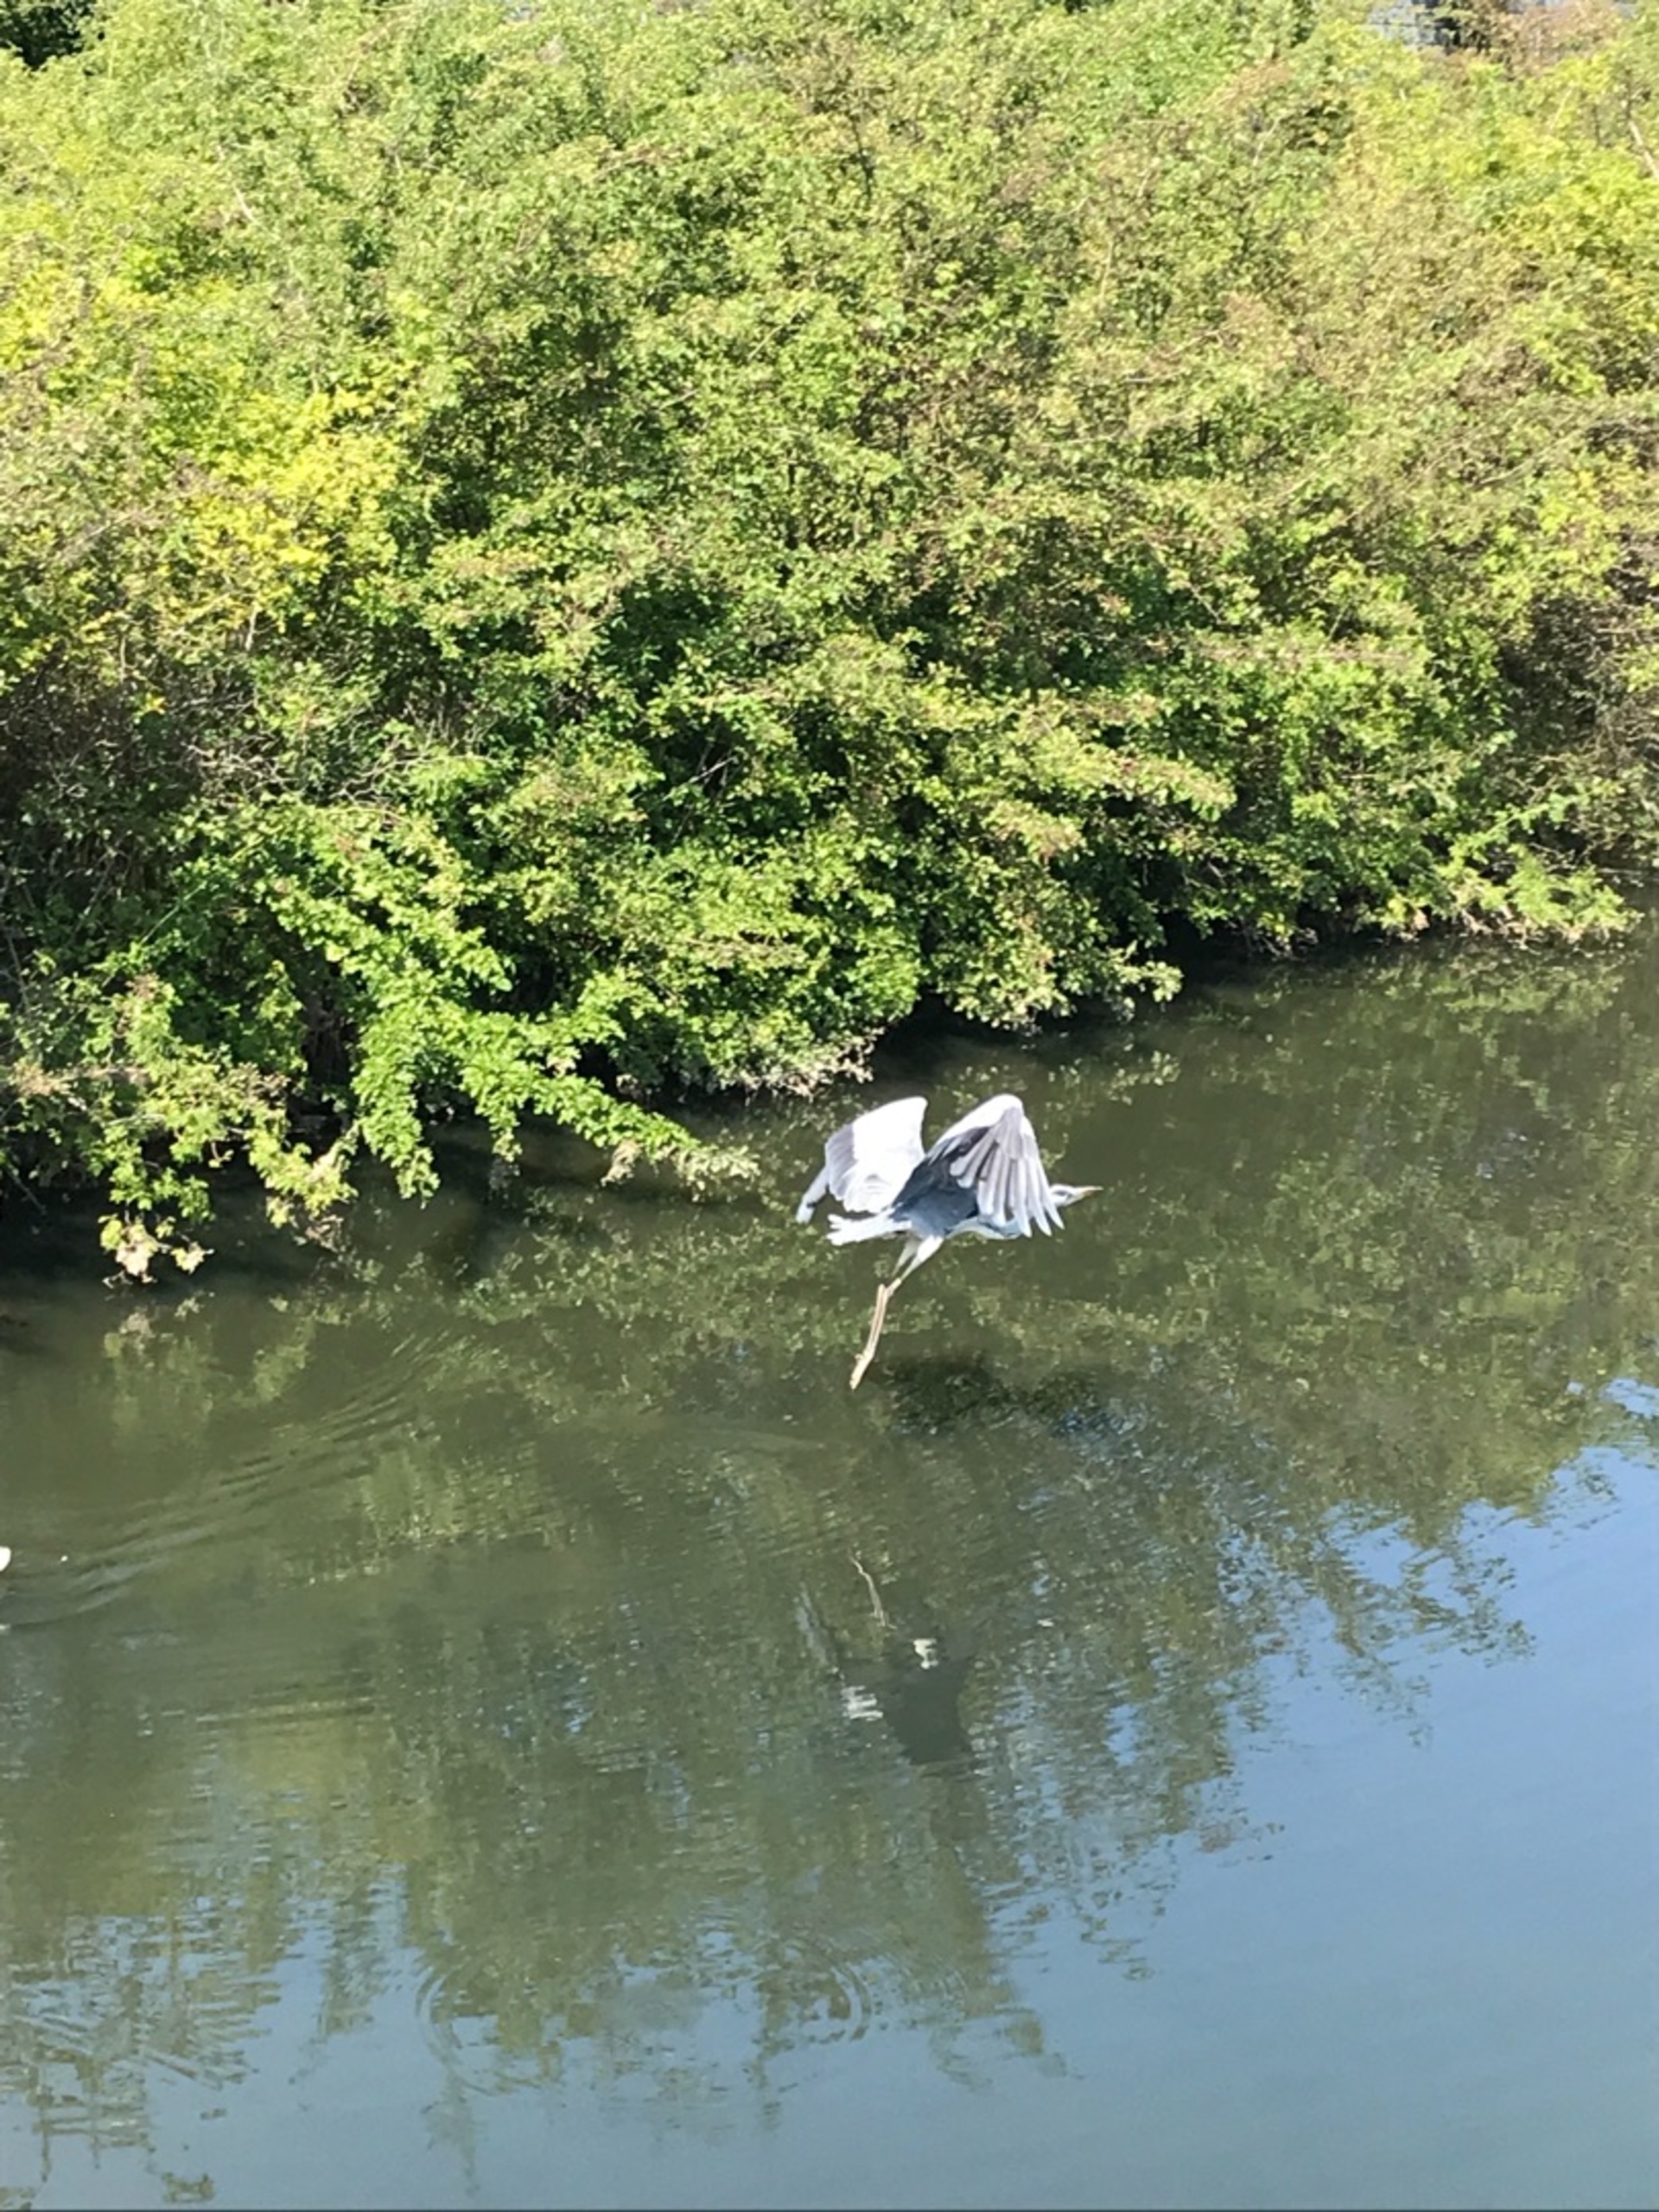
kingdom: Animalia
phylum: Chordata
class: Aves
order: Pelecaniformes
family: Ardeidae
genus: Ardea
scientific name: Ardea cinerea
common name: Fiskehejre
